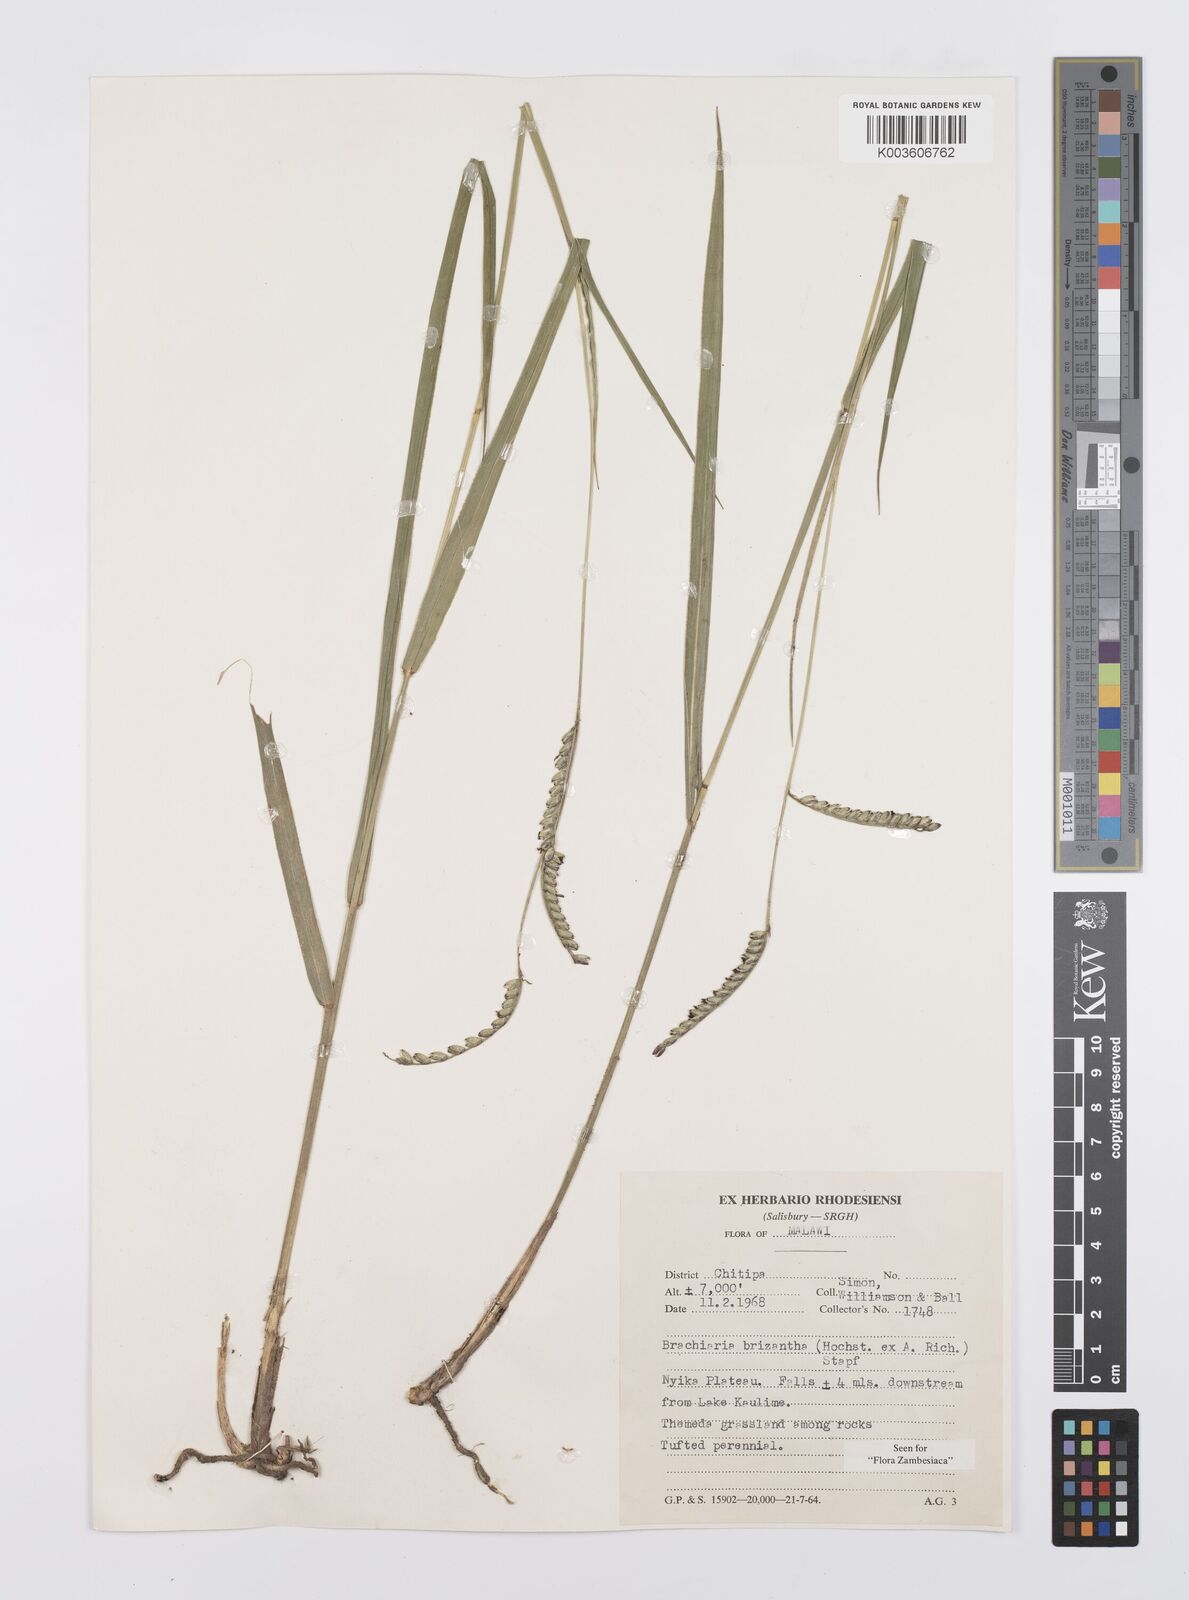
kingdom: Plantae
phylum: Tracheophyta
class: Liliopsida
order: Poales
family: Poaceae
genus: Urochloa
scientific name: Urochloa brizantha
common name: Palisade signalgrass
